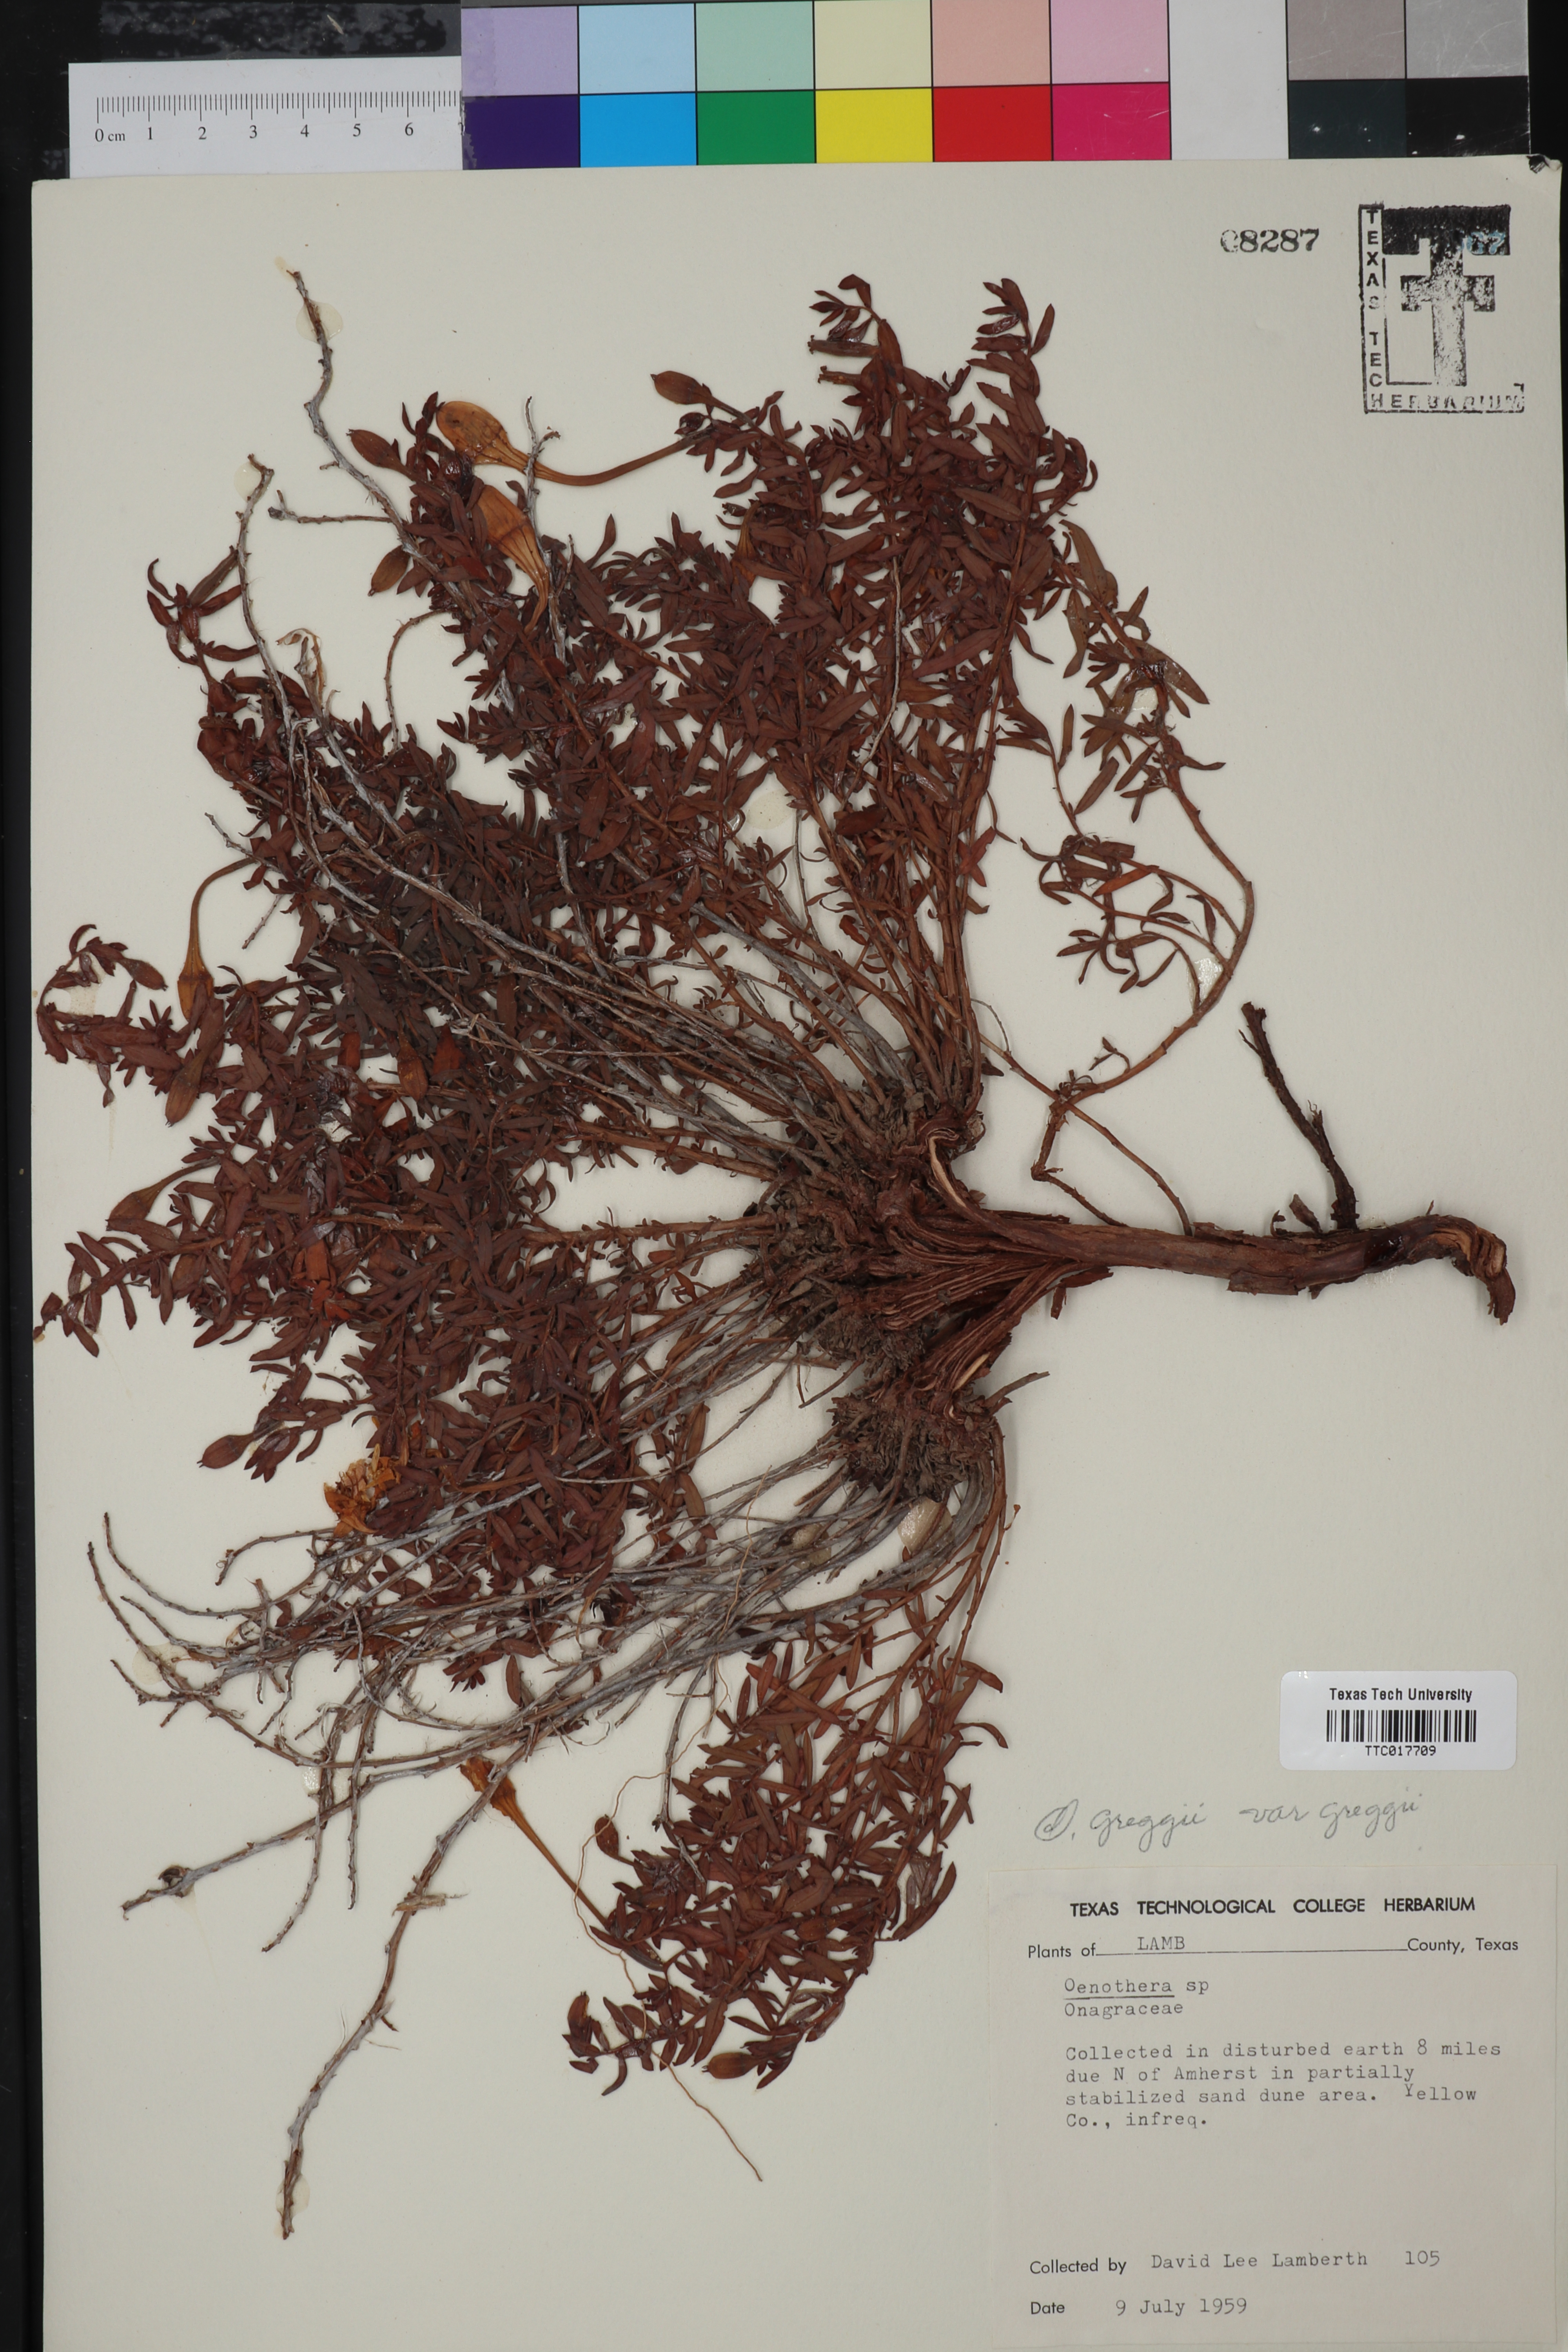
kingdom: Plantae
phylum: Tracheophyta
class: Magnoliopsida
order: Myrtales
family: Onagraceae
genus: Oenothera
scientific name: Oenothera hartwegii
